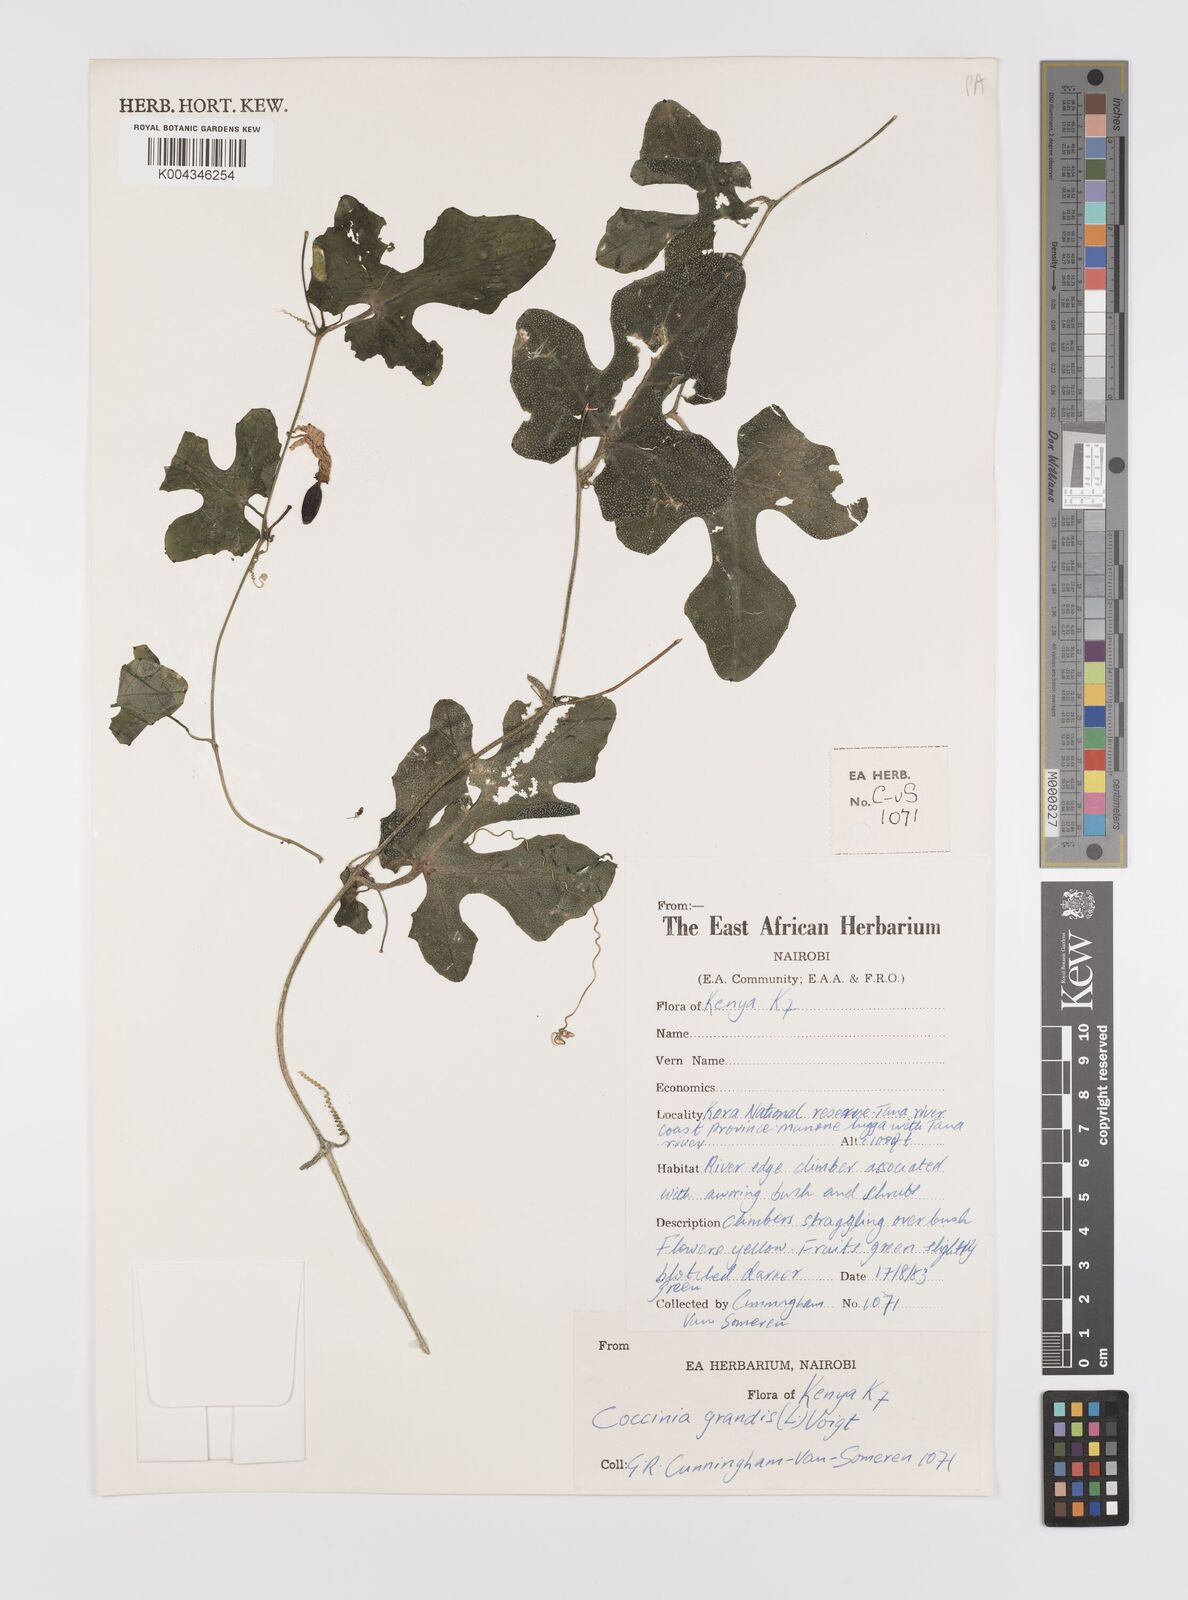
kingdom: Plantae
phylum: Tracheophyta
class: Magnoliopsida
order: Cucurbitales
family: Cucurbitaceae
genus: Coccinia
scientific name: Coccinia grandis
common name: Ivy gourd
